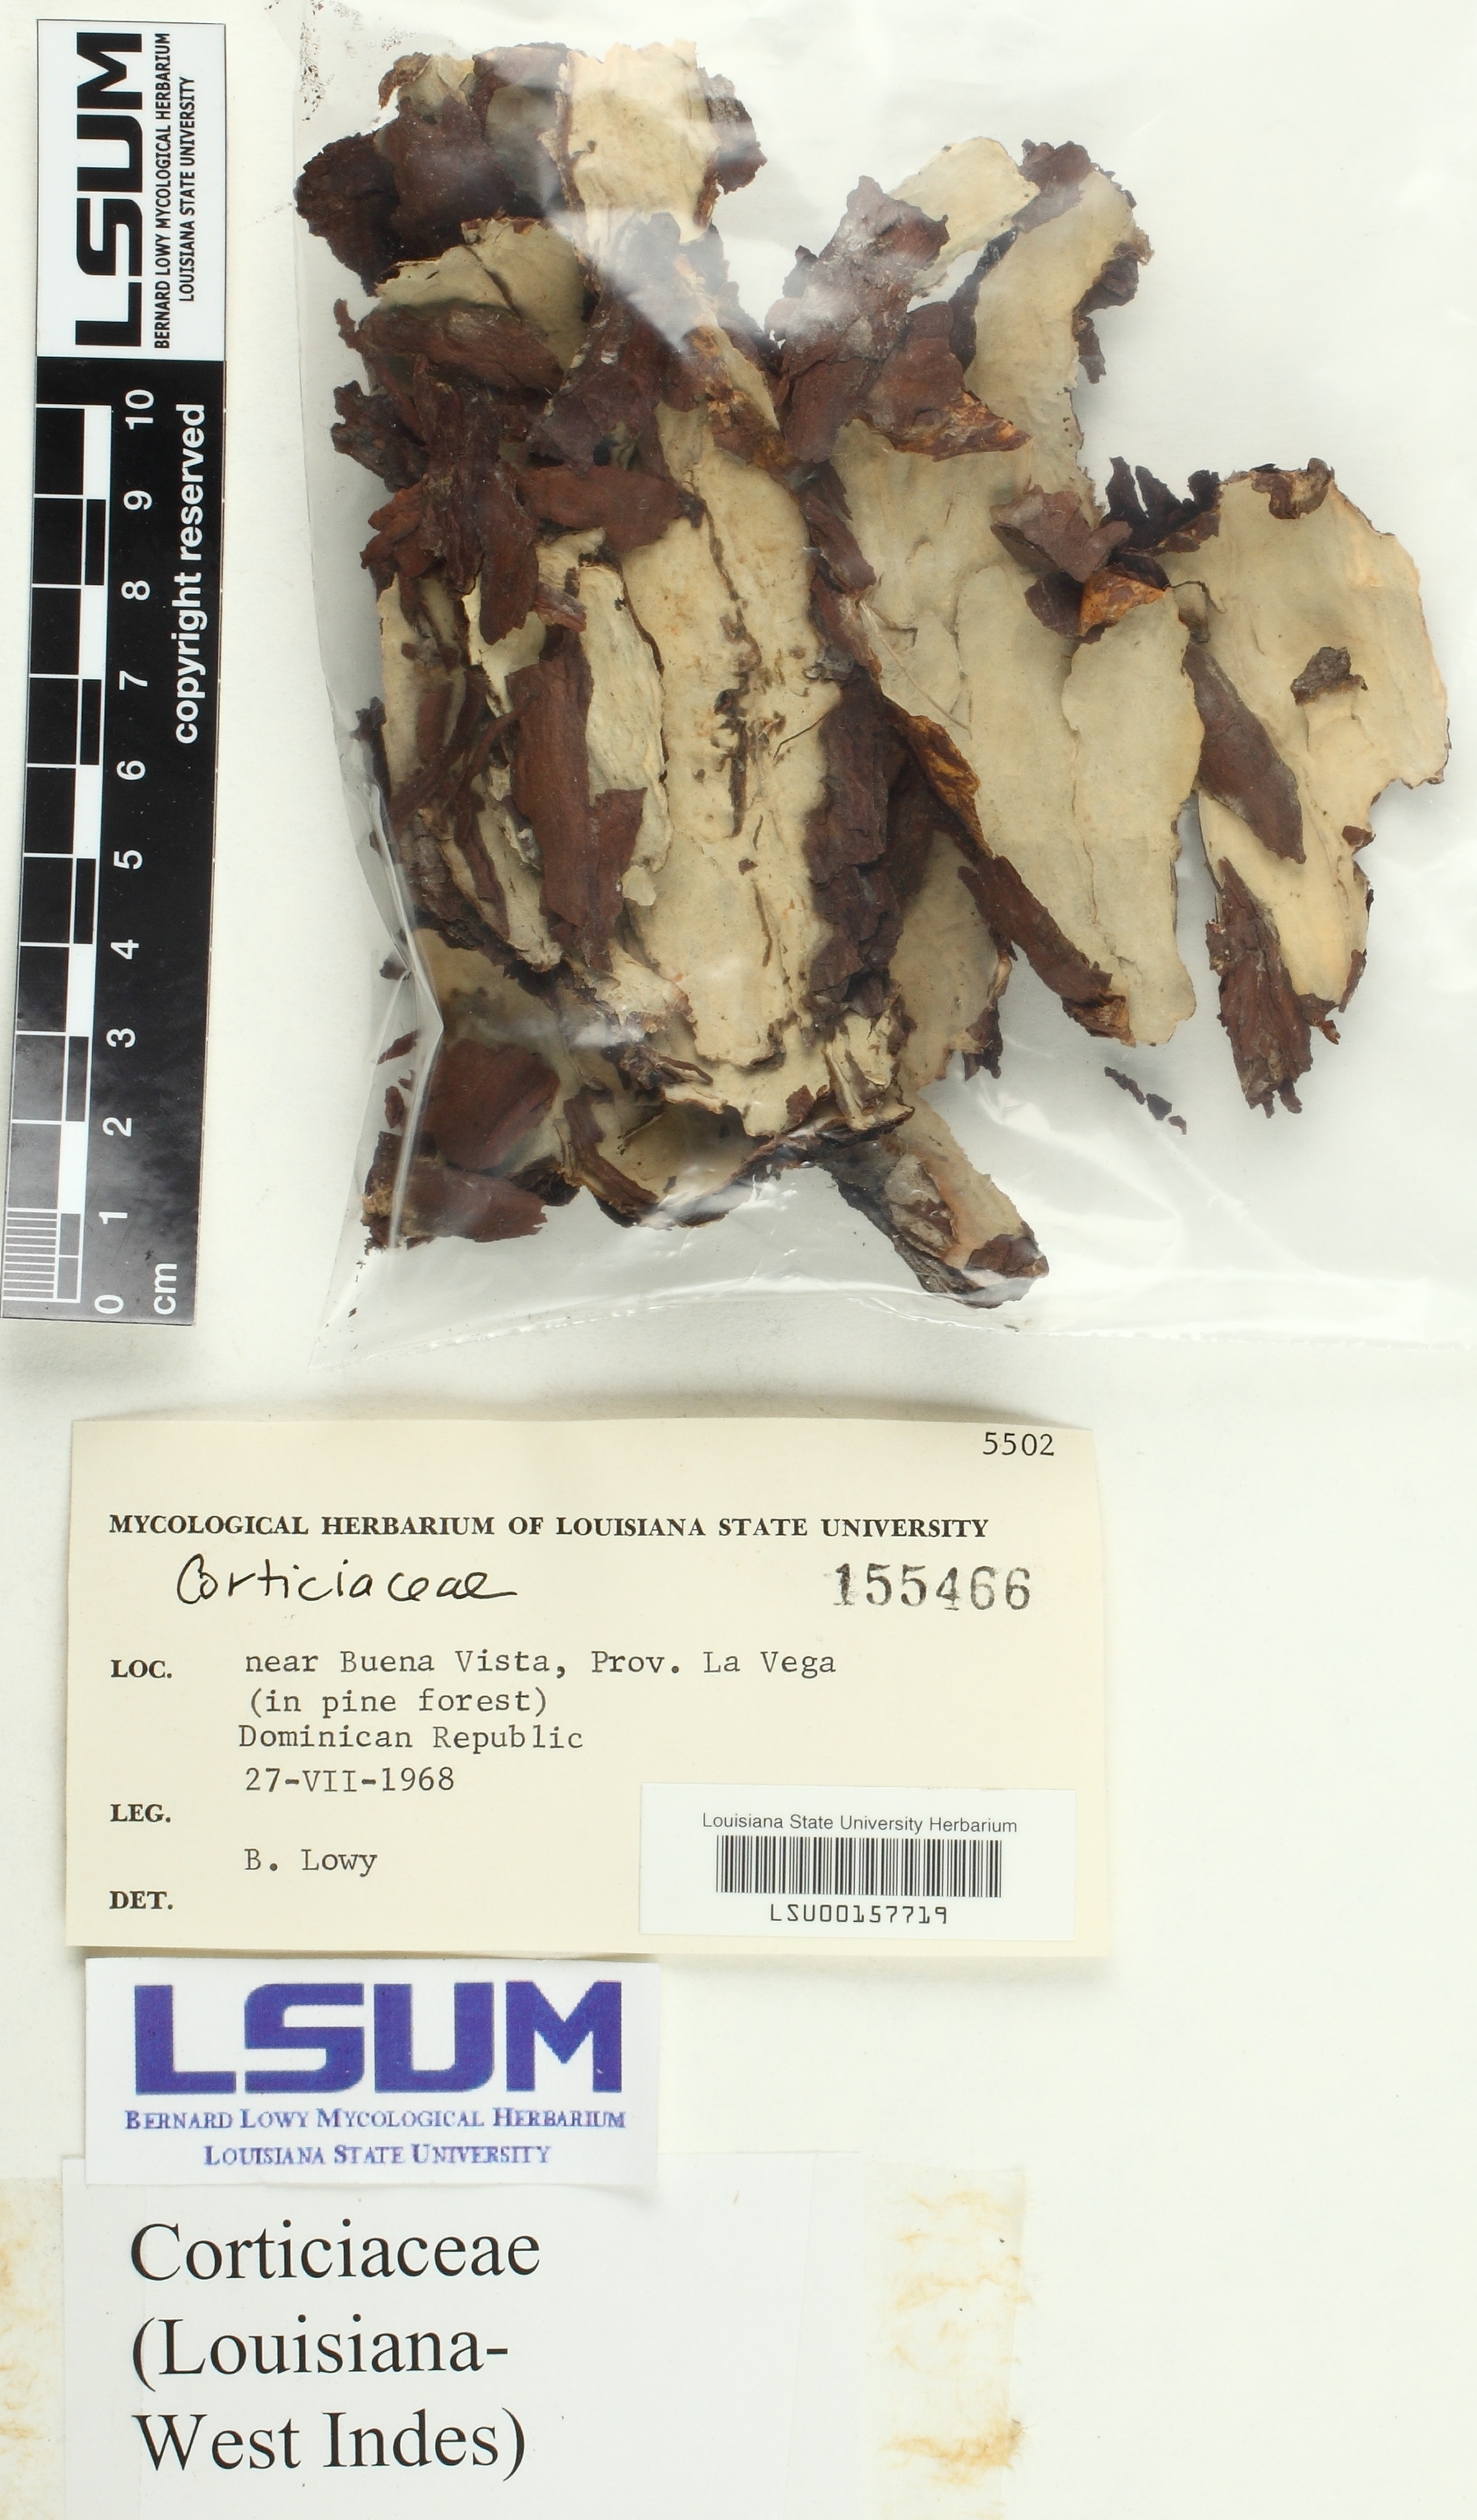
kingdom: Fungi
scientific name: Fungi
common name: Fungi
